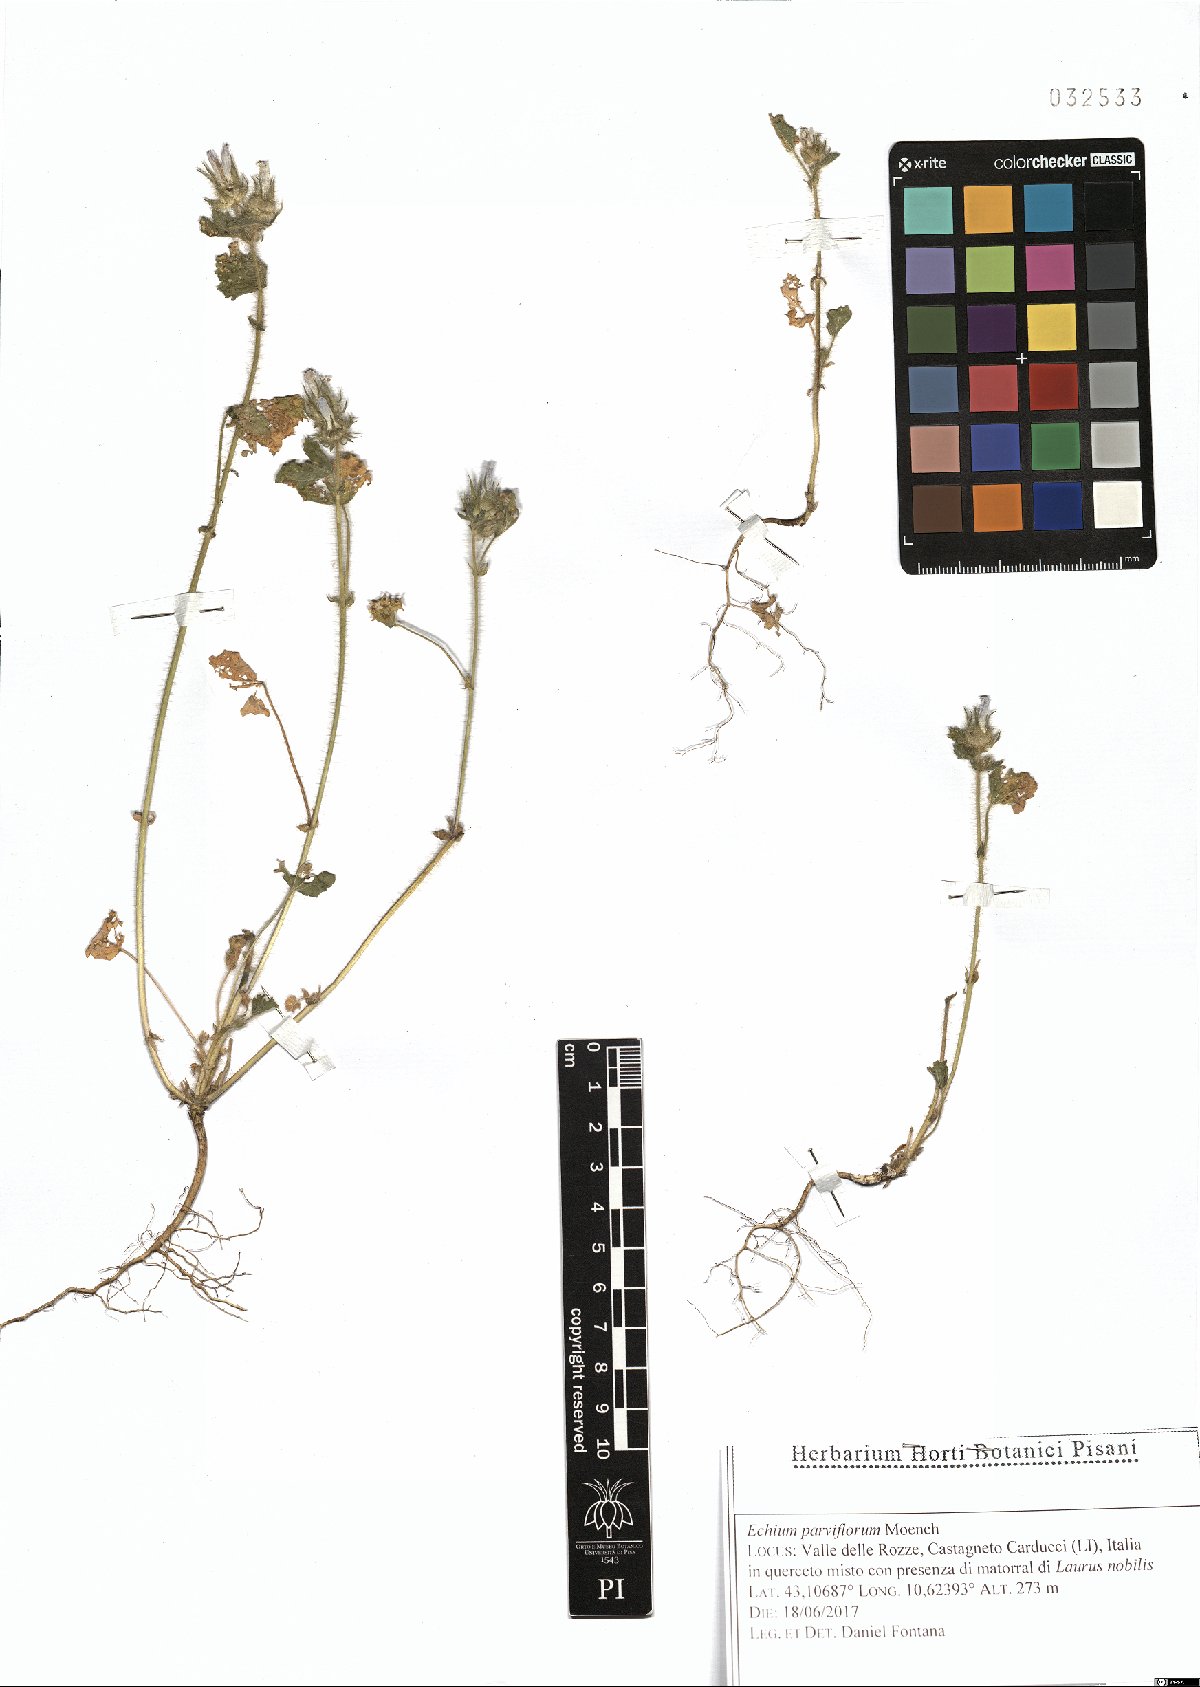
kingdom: Plantae
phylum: Tracheophyta
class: Magnoliopsida
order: Boraginales
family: Boraginaceae
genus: Echium
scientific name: Echium parviflorum
